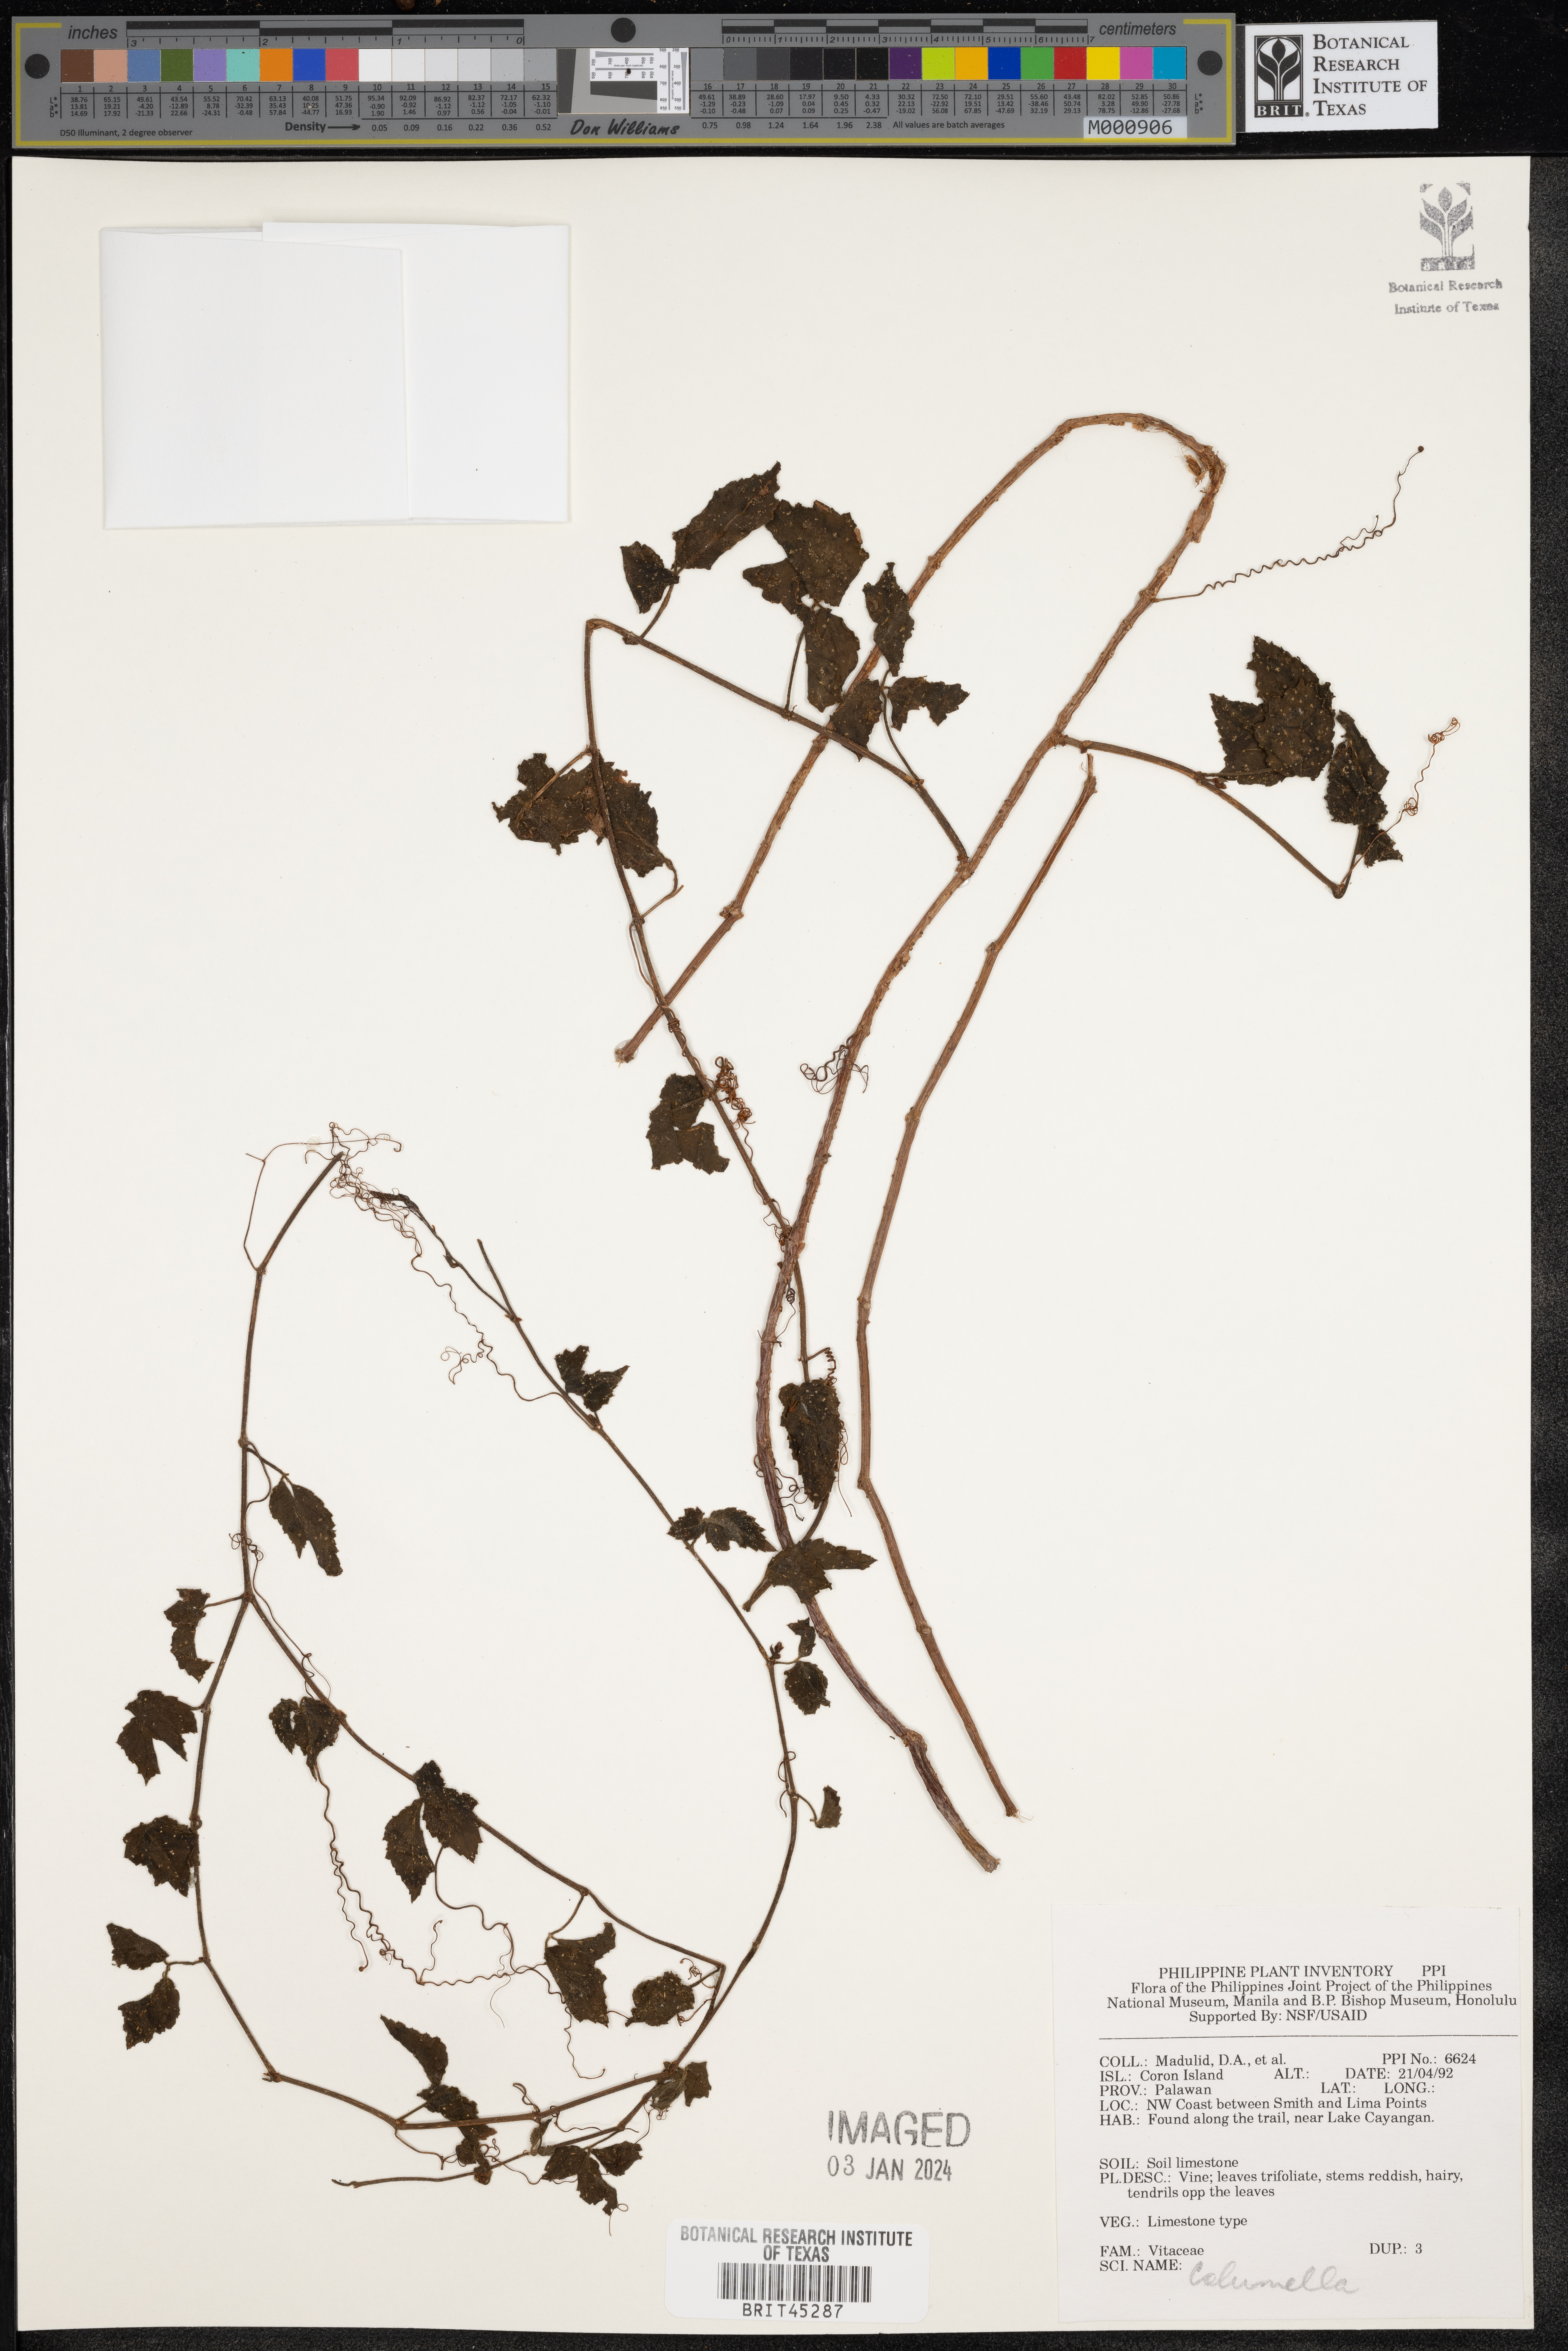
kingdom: Plantae
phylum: Tracheophyta
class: Magnoliopsida
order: Bruniales
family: Columelliaceae
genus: Columella
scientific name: Columella
